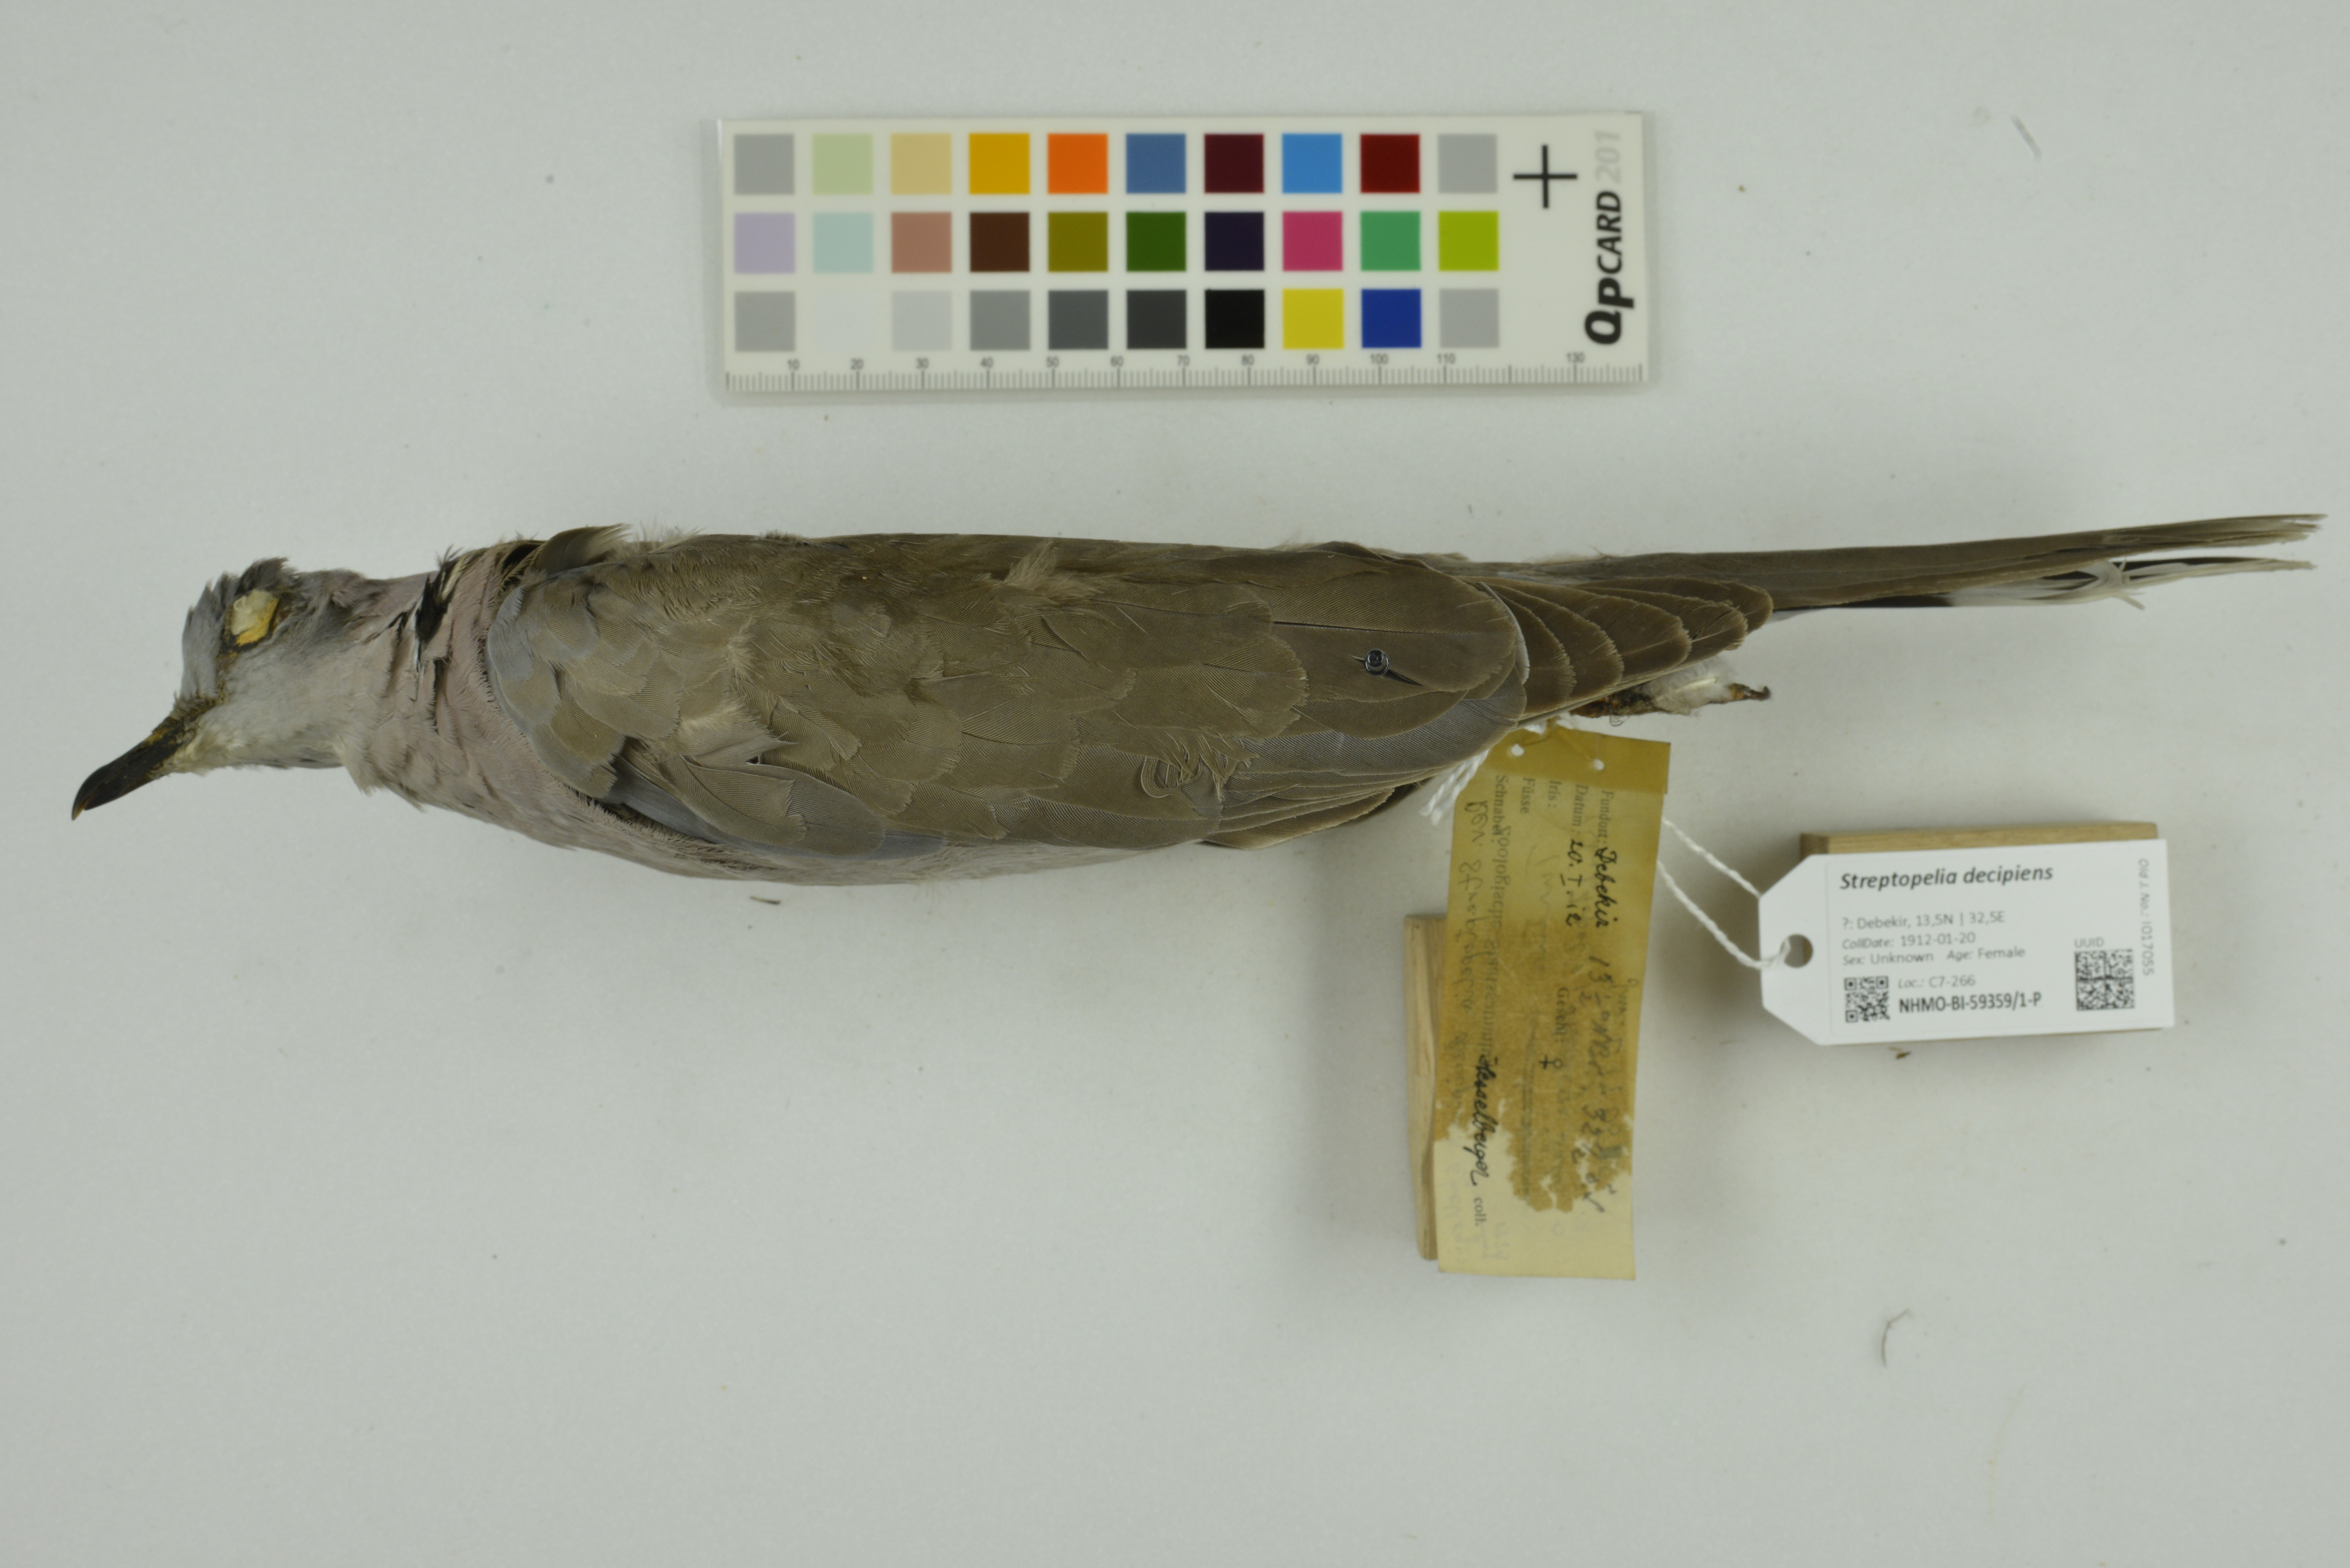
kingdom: Animalia
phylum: Chordata
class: Aves
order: Columbiformes
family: Columbidae
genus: Streptopelia
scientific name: Streptopelia decipiens
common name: Mourning collared dove
